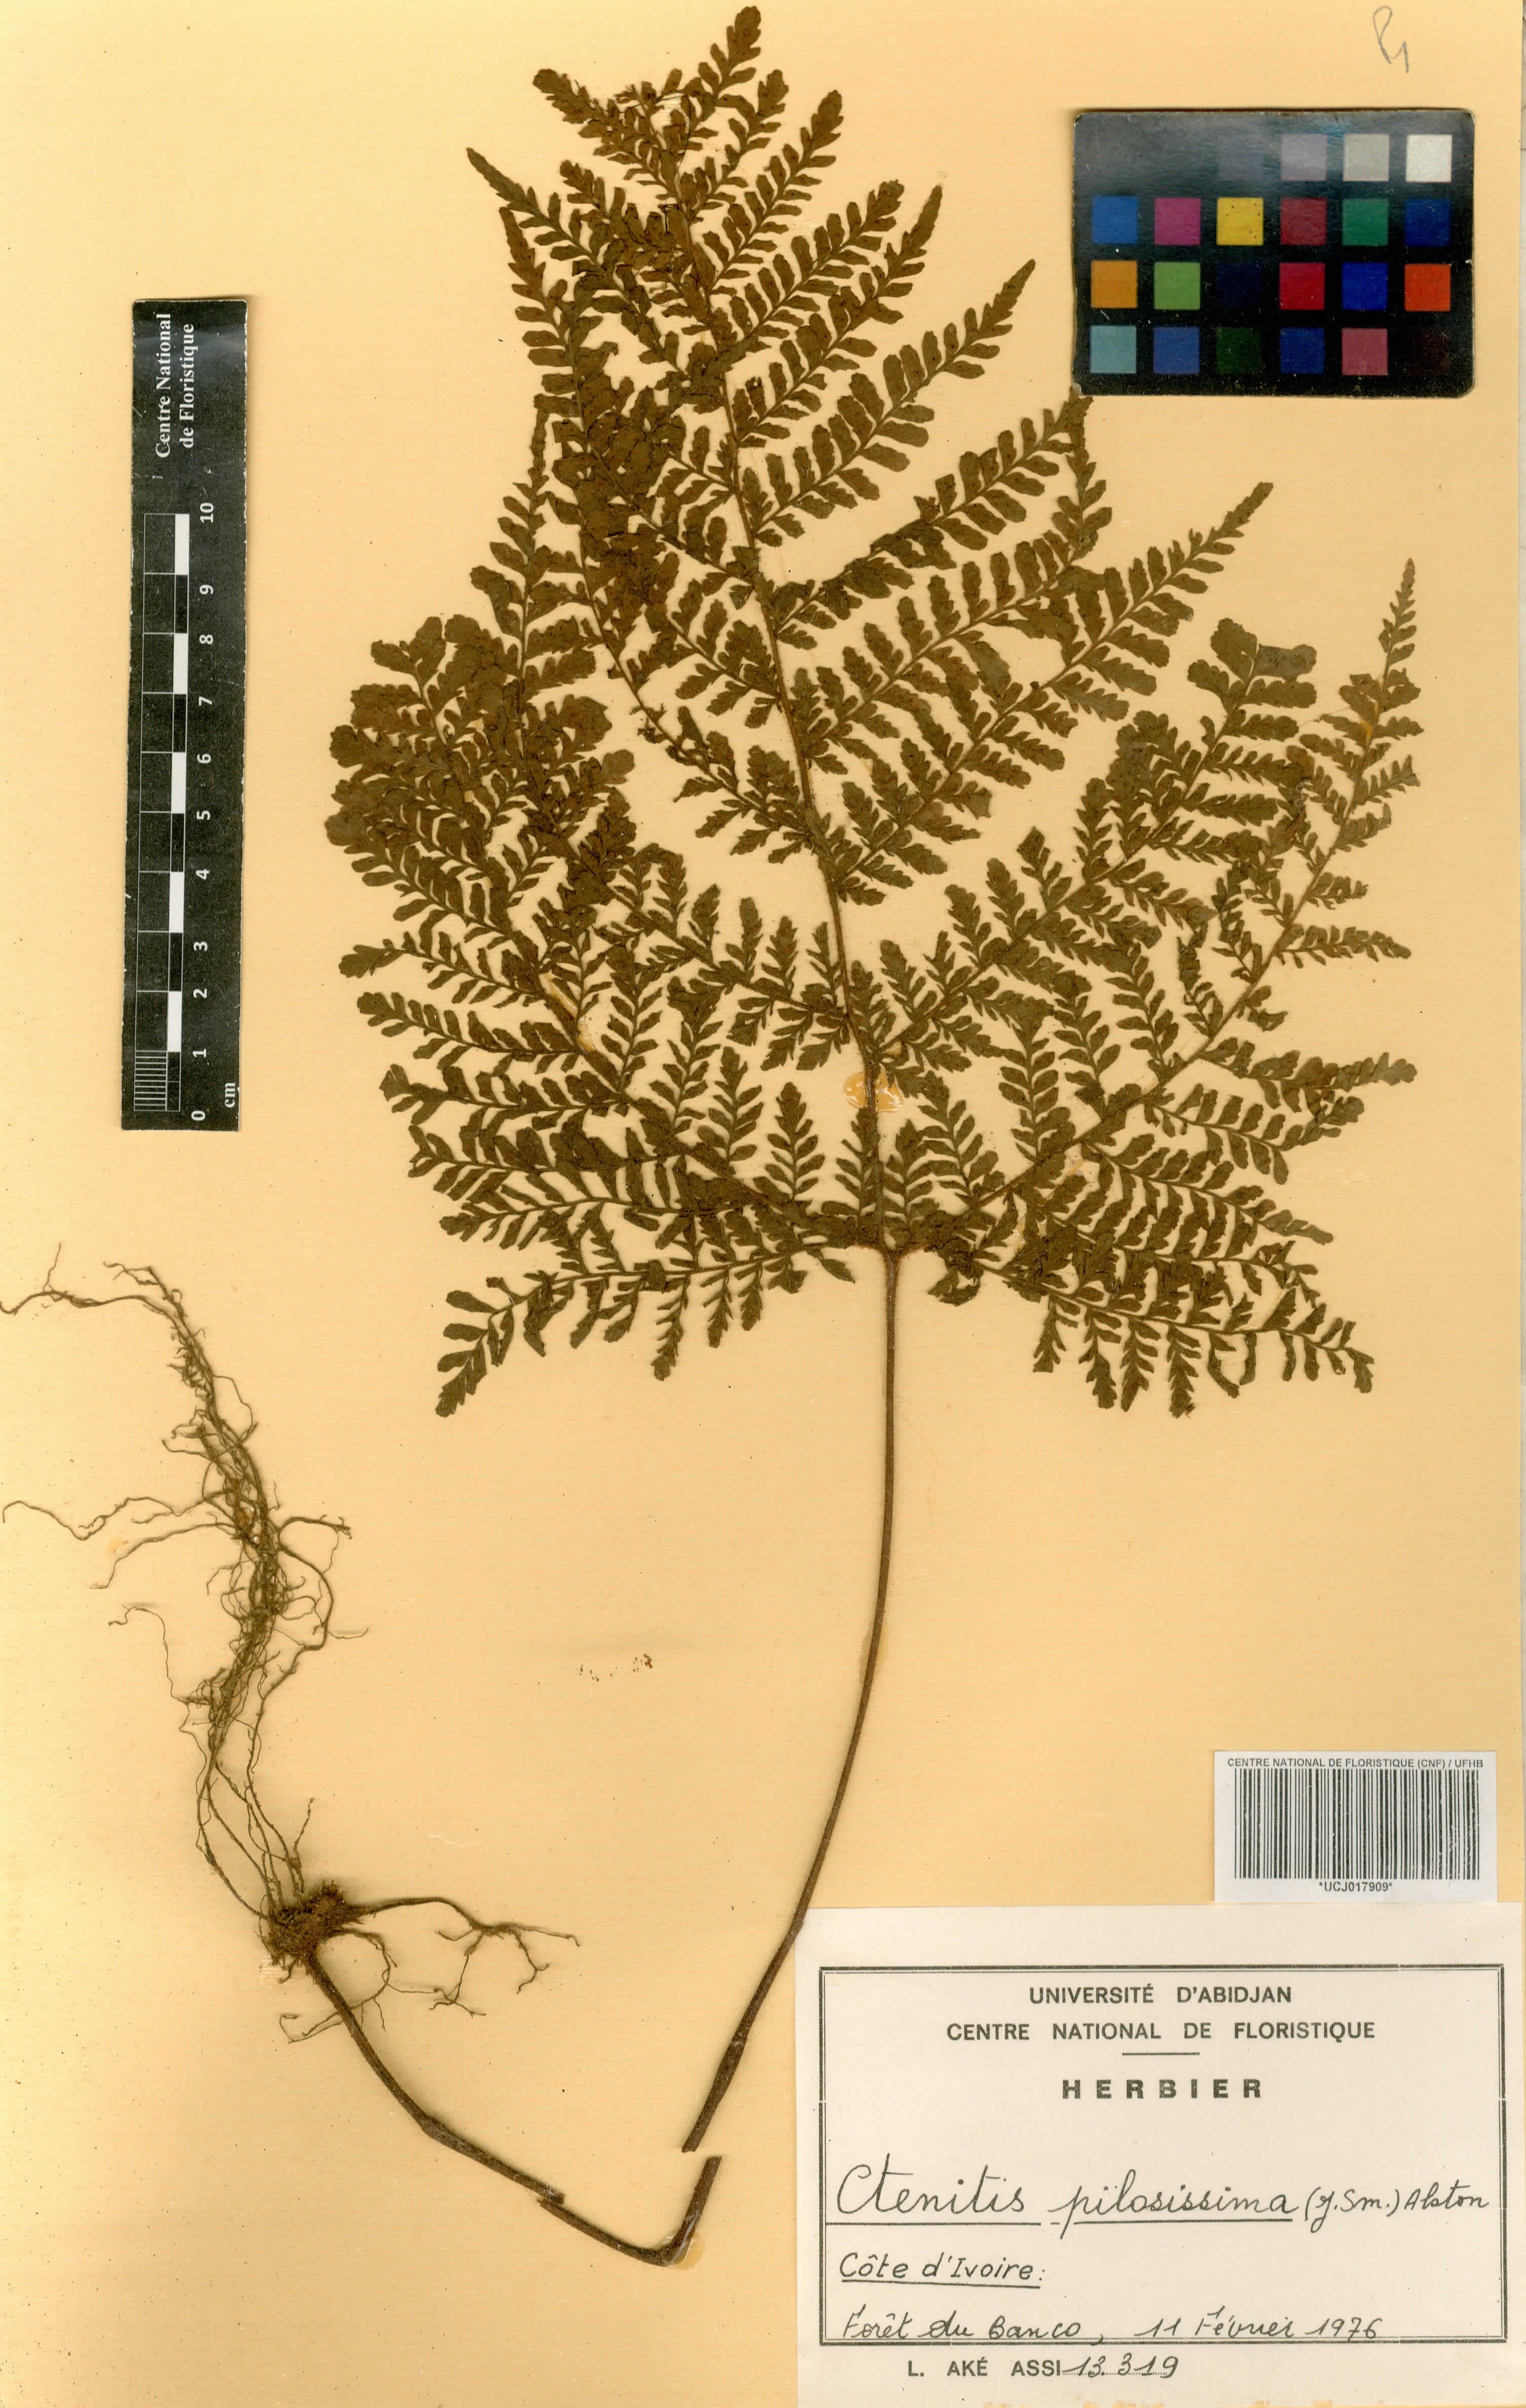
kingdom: Plantae
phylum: Tracheophyta
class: Polypodiopsida
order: Polypodiales
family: Tectariaceae
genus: Triplophyllum
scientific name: Triplophyllum pilosissimum
